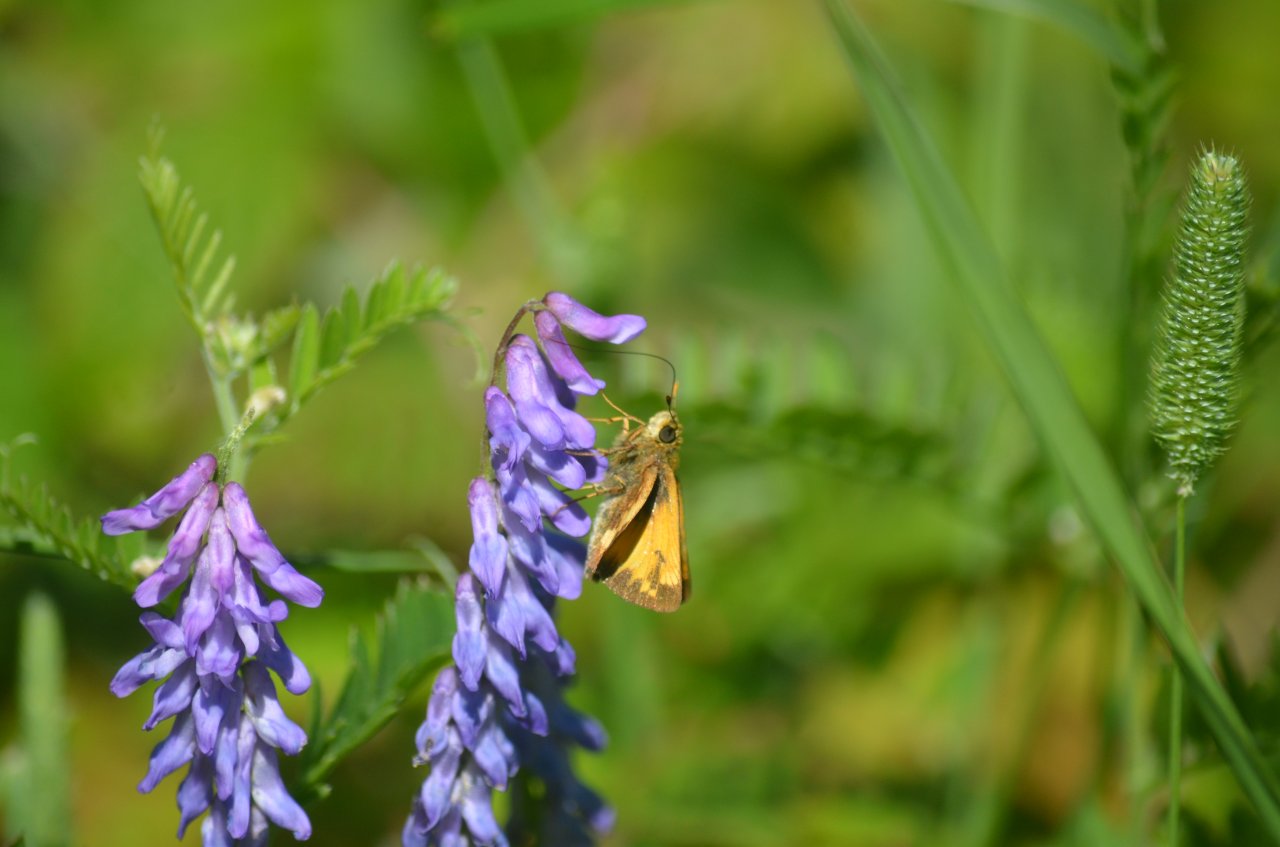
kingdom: Animalia
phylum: Arthropoda
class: Insecta
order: Lepidoptera
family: Hesperiidae
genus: Lon
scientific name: Lon hobomok
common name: Hobomok Skipper
